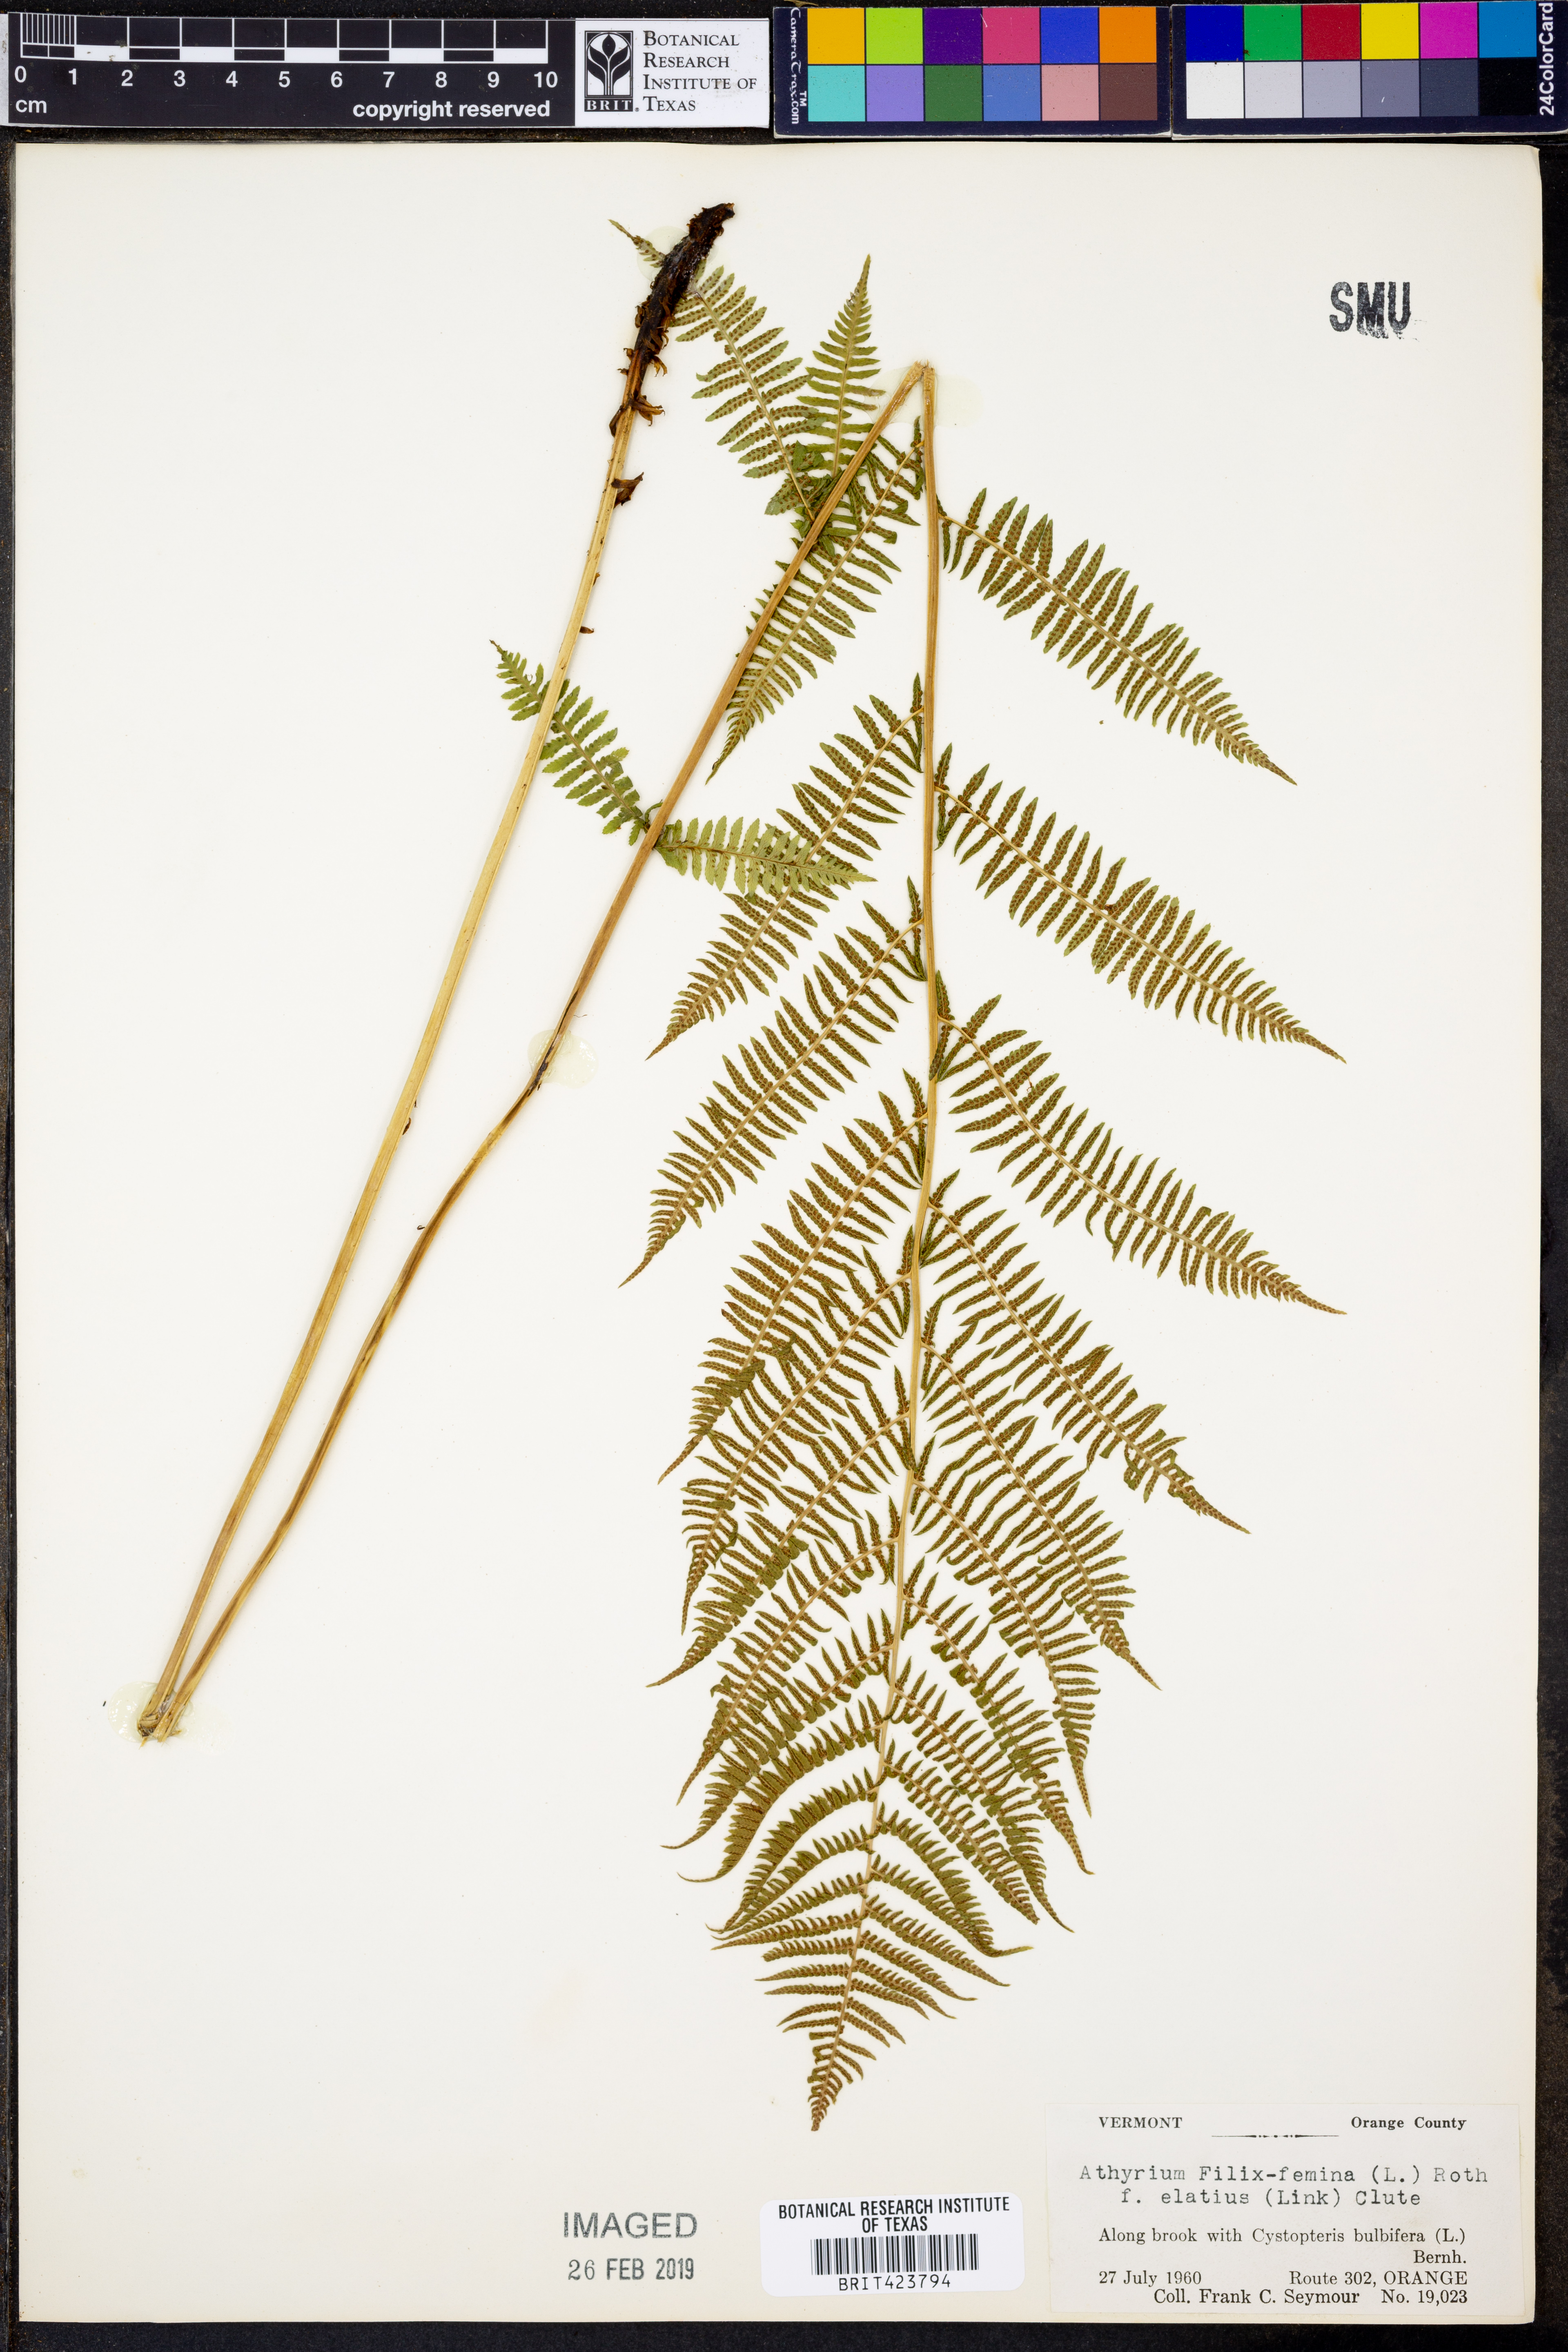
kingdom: Plantae
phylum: Tracheophyta
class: Polypodiopsida
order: Polypodiales
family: Athyriaceae
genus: Athyrium
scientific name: Athyrium filix-femina
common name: Lady fern
